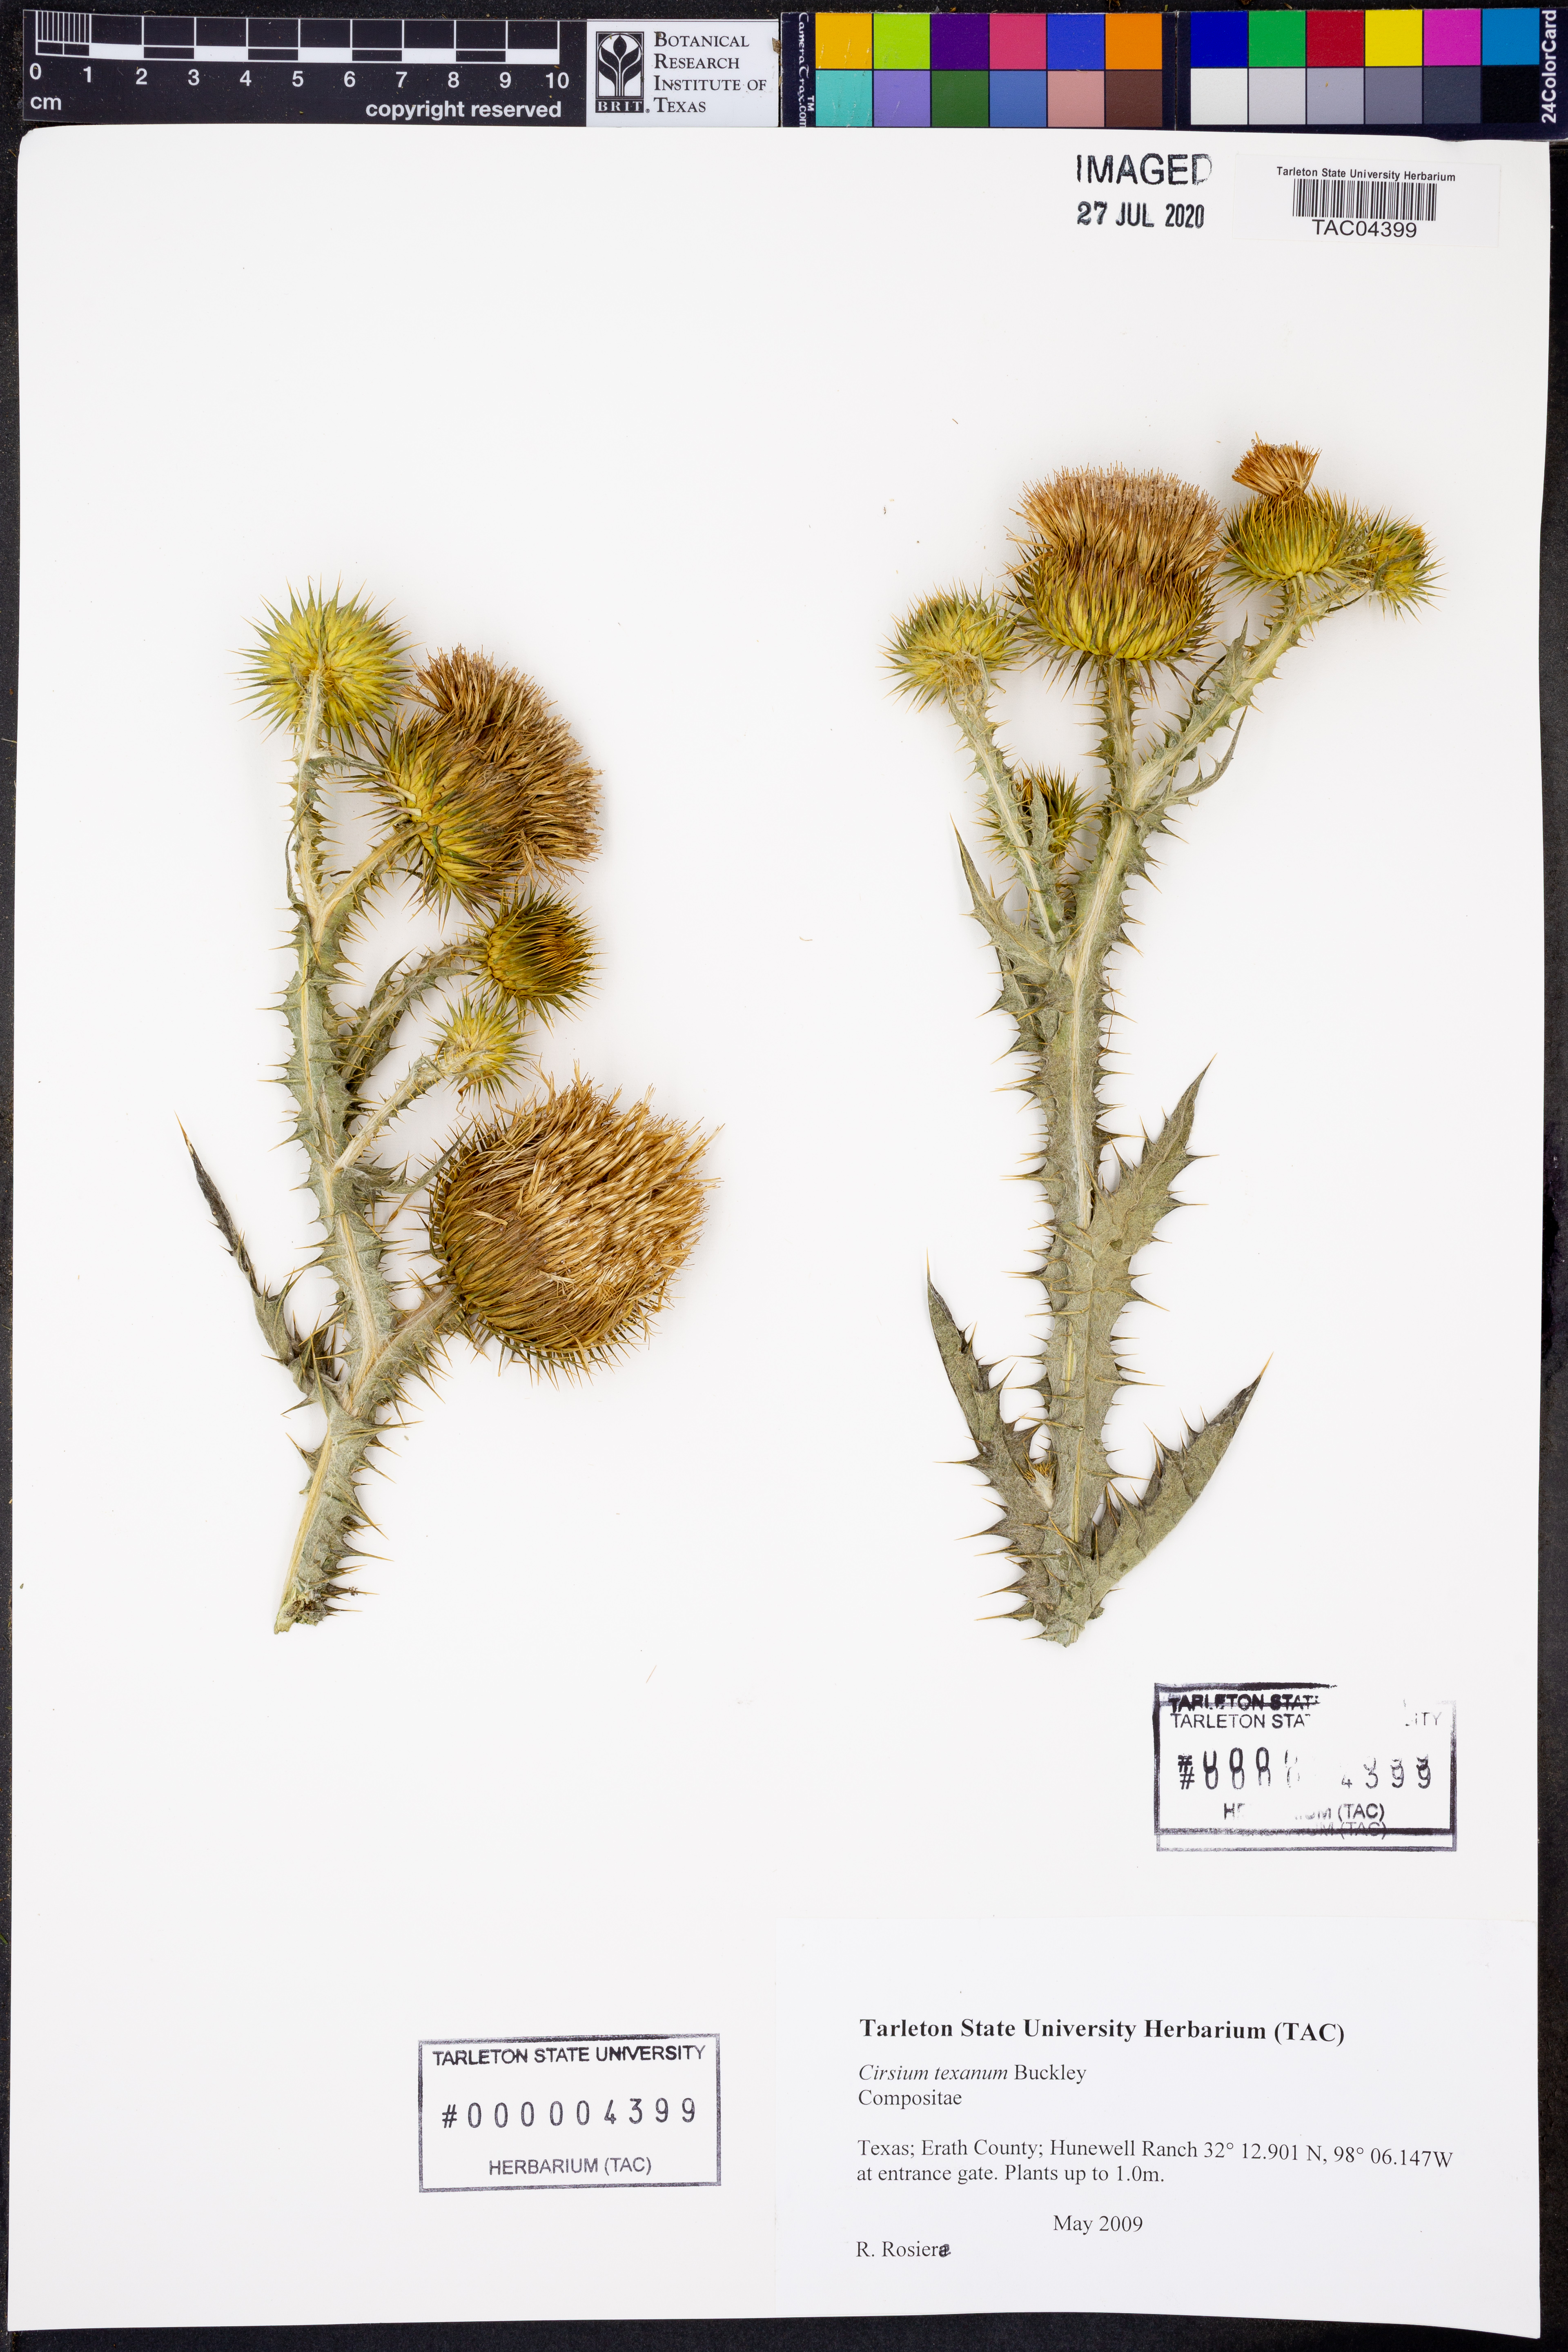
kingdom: Plantae
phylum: Tracheophyta
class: Magnoliopsida
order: Asterales
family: Asteraceae
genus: Cirsium
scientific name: Cirsium texanum
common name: Texas purple thistle
